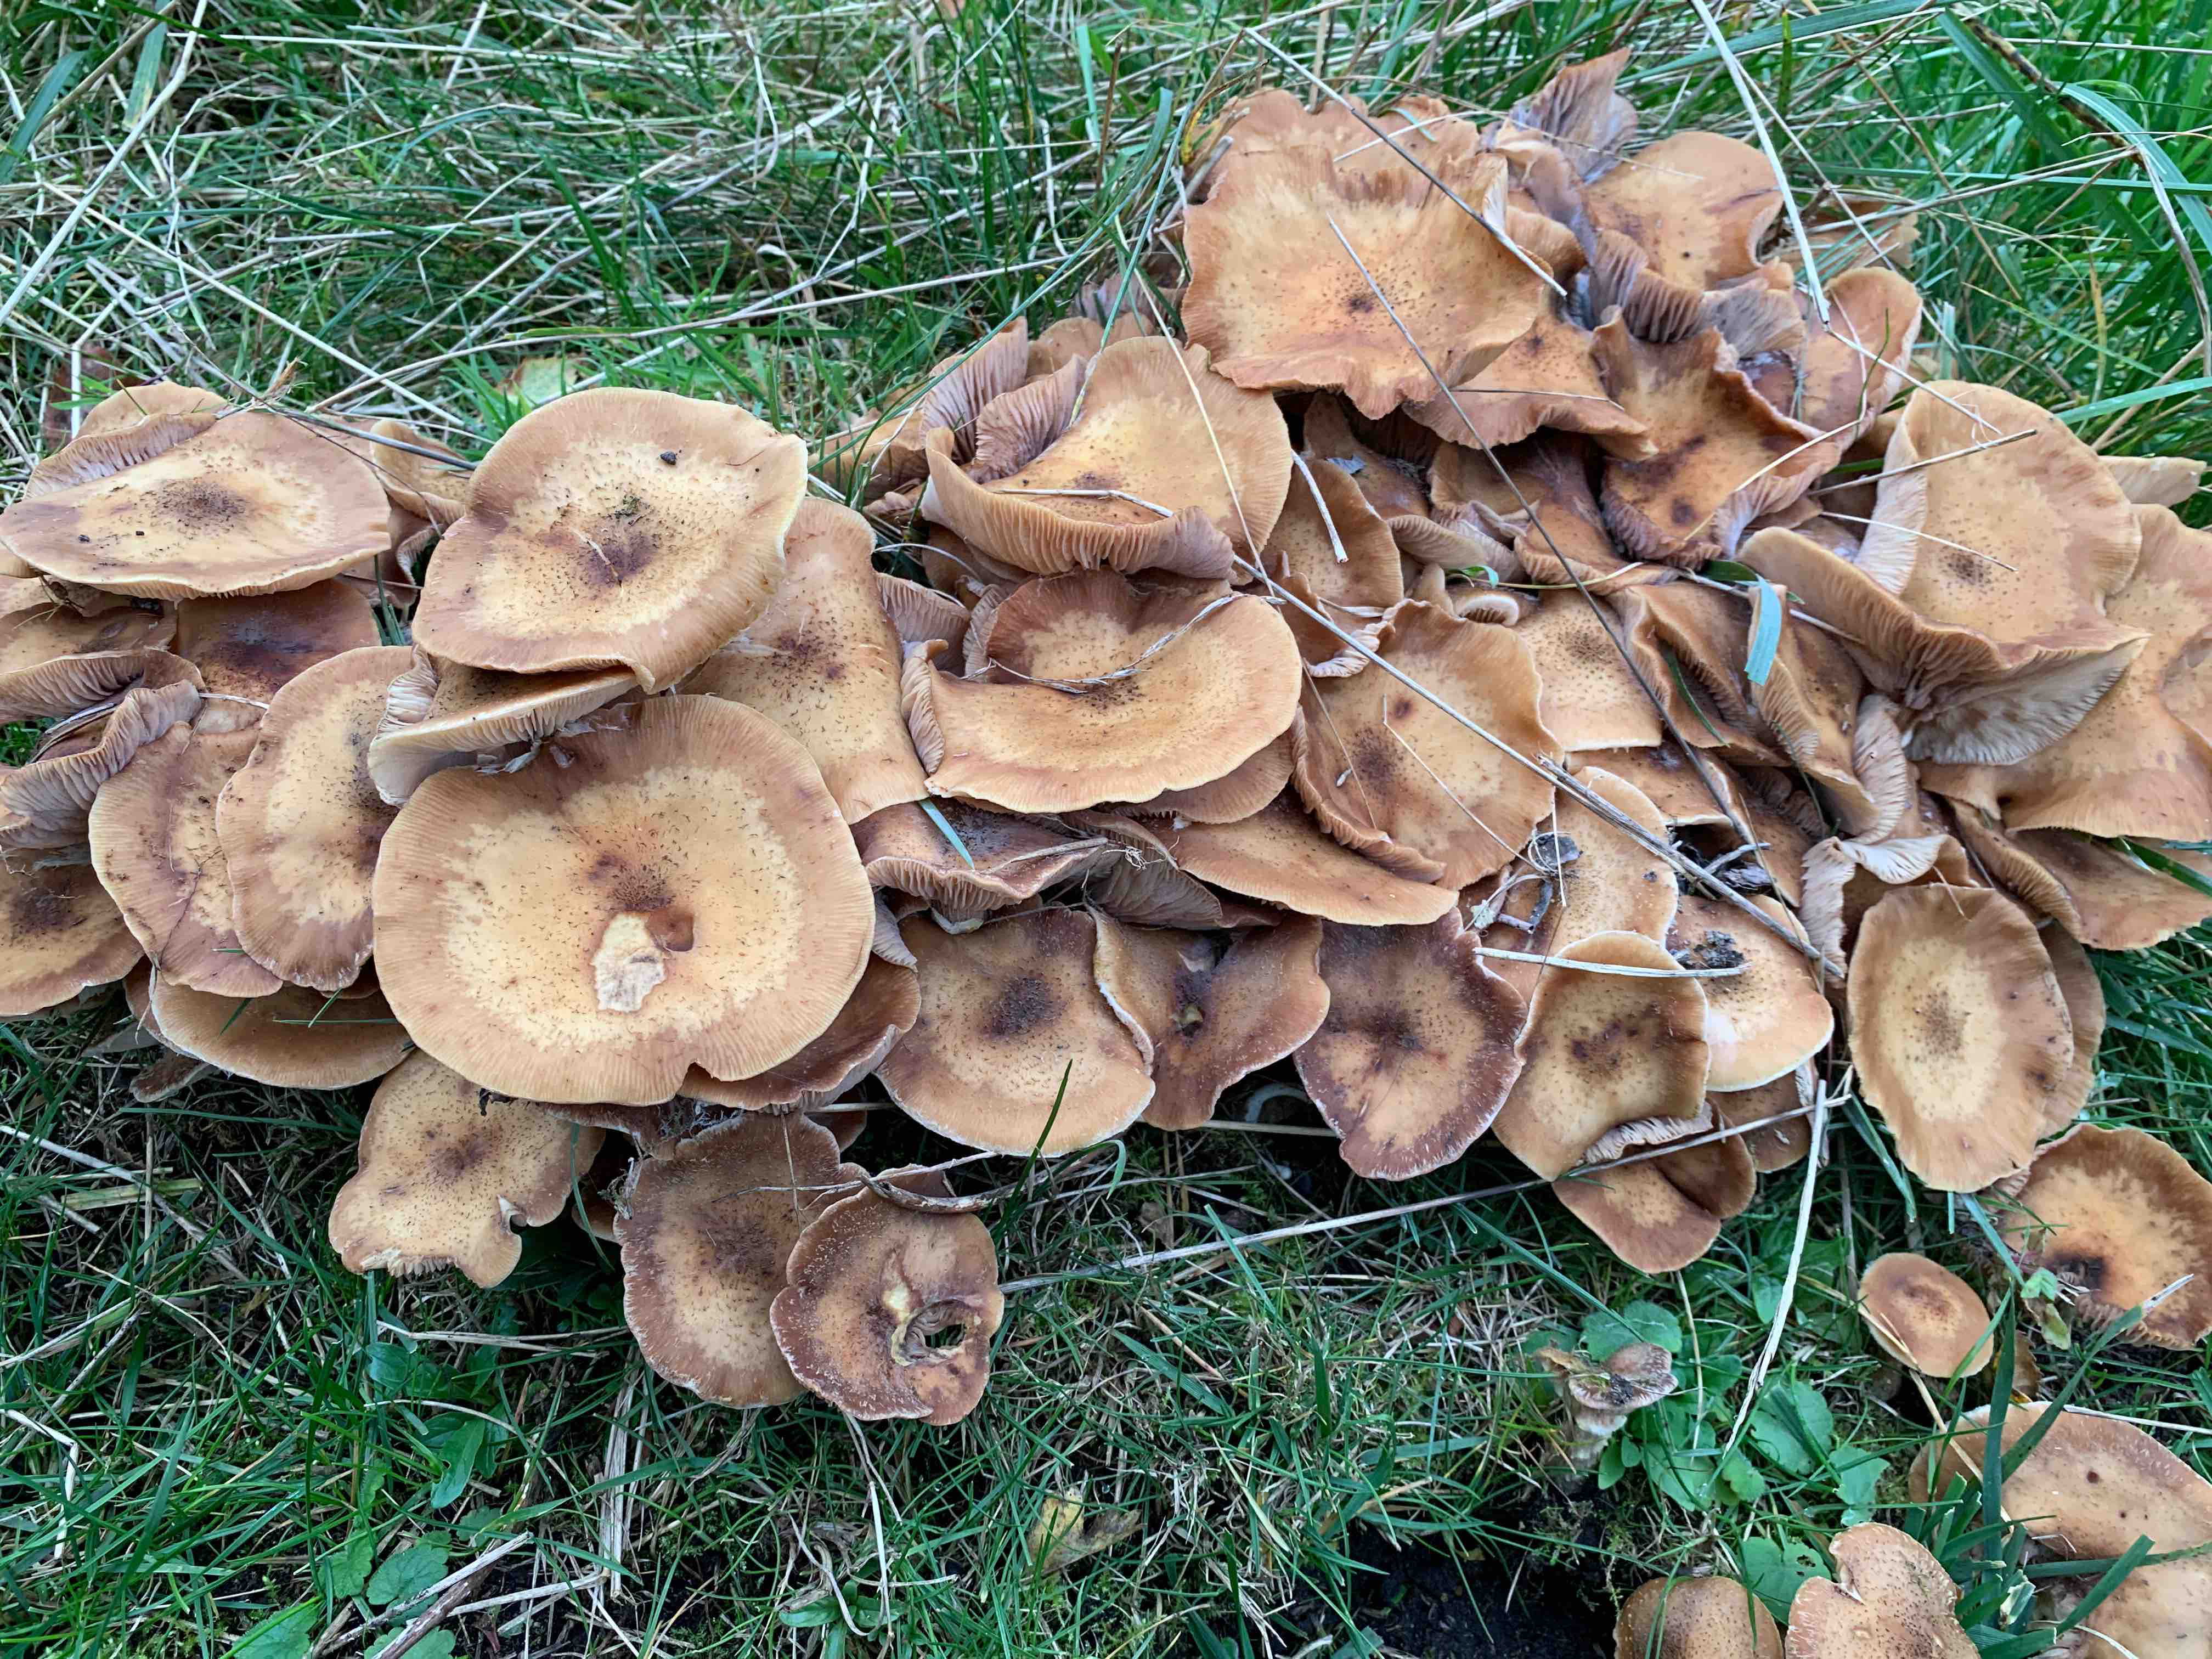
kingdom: Fungi
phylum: Basidiomycota
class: Agaricomycetes
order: Agaricales
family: Physalacriaceae
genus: Armillaria
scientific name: Armillaria
